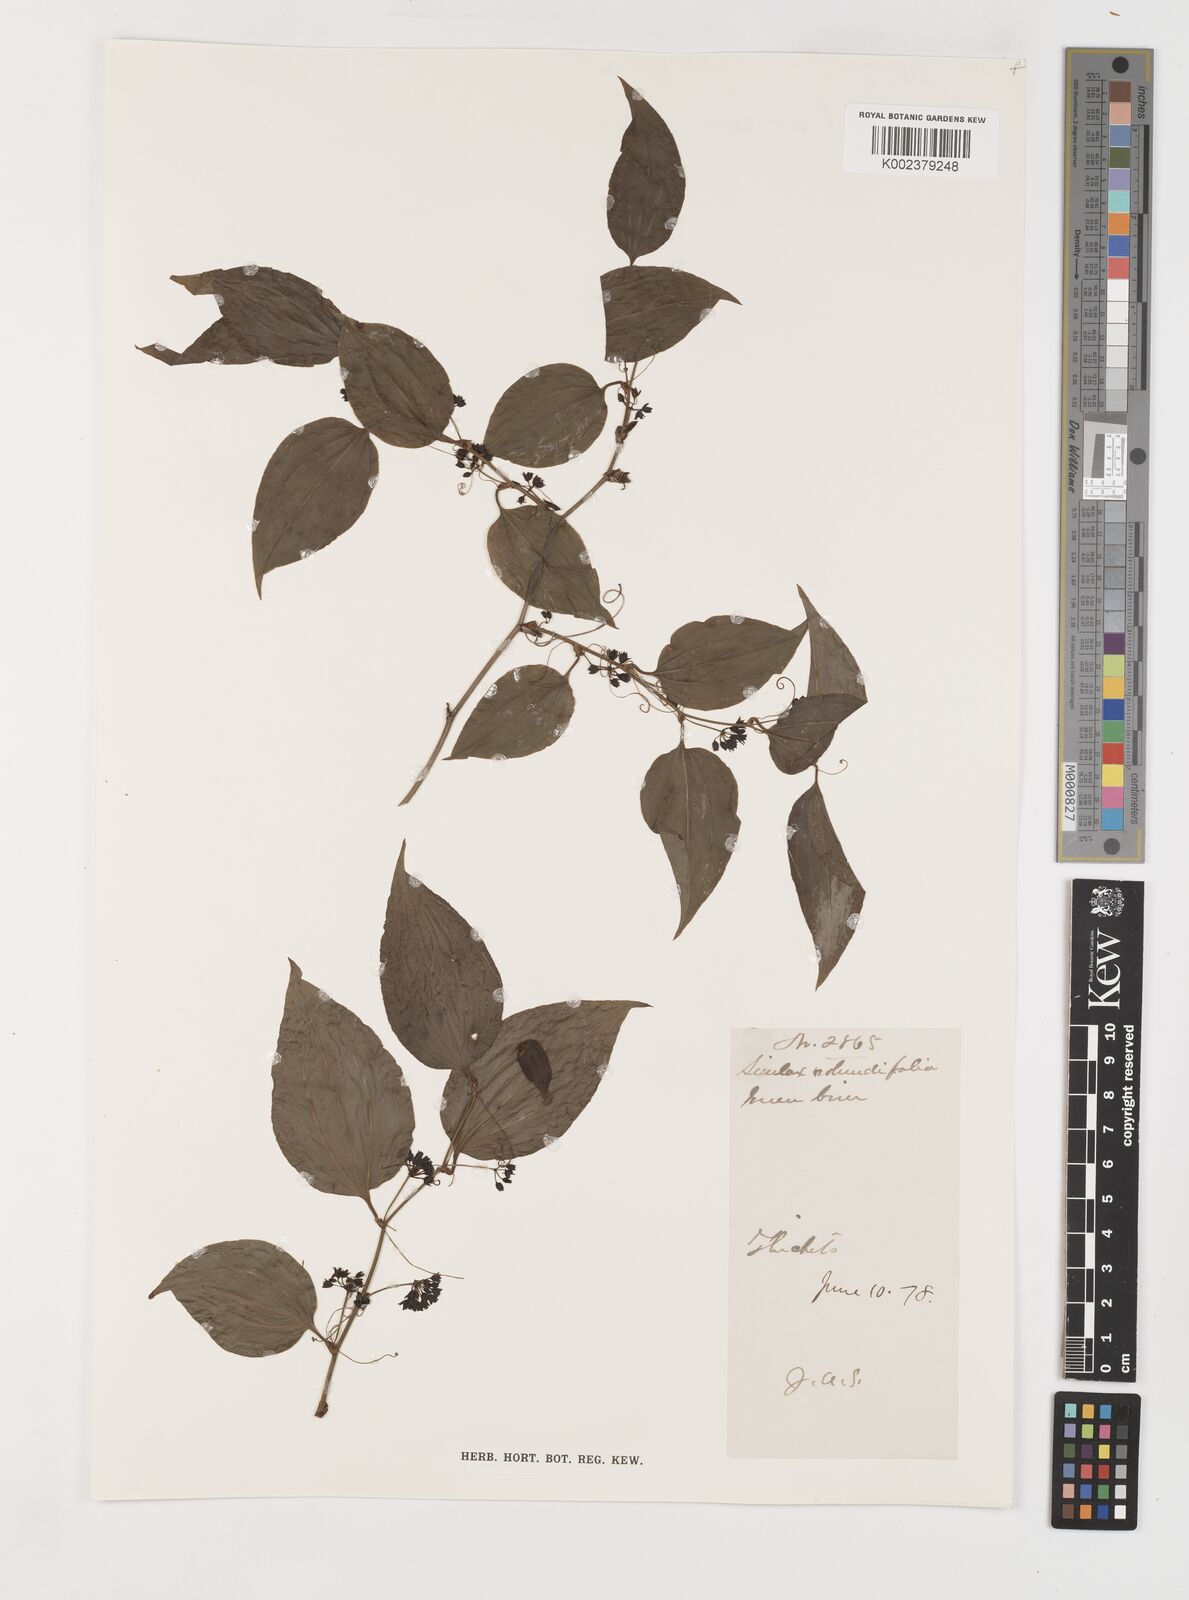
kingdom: Plantae
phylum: Tracheophyta
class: Liliopsida
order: Liliales
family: Smilacaceae
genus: Smilax
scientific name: Smilax rotundifolia
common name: Bullbriar
